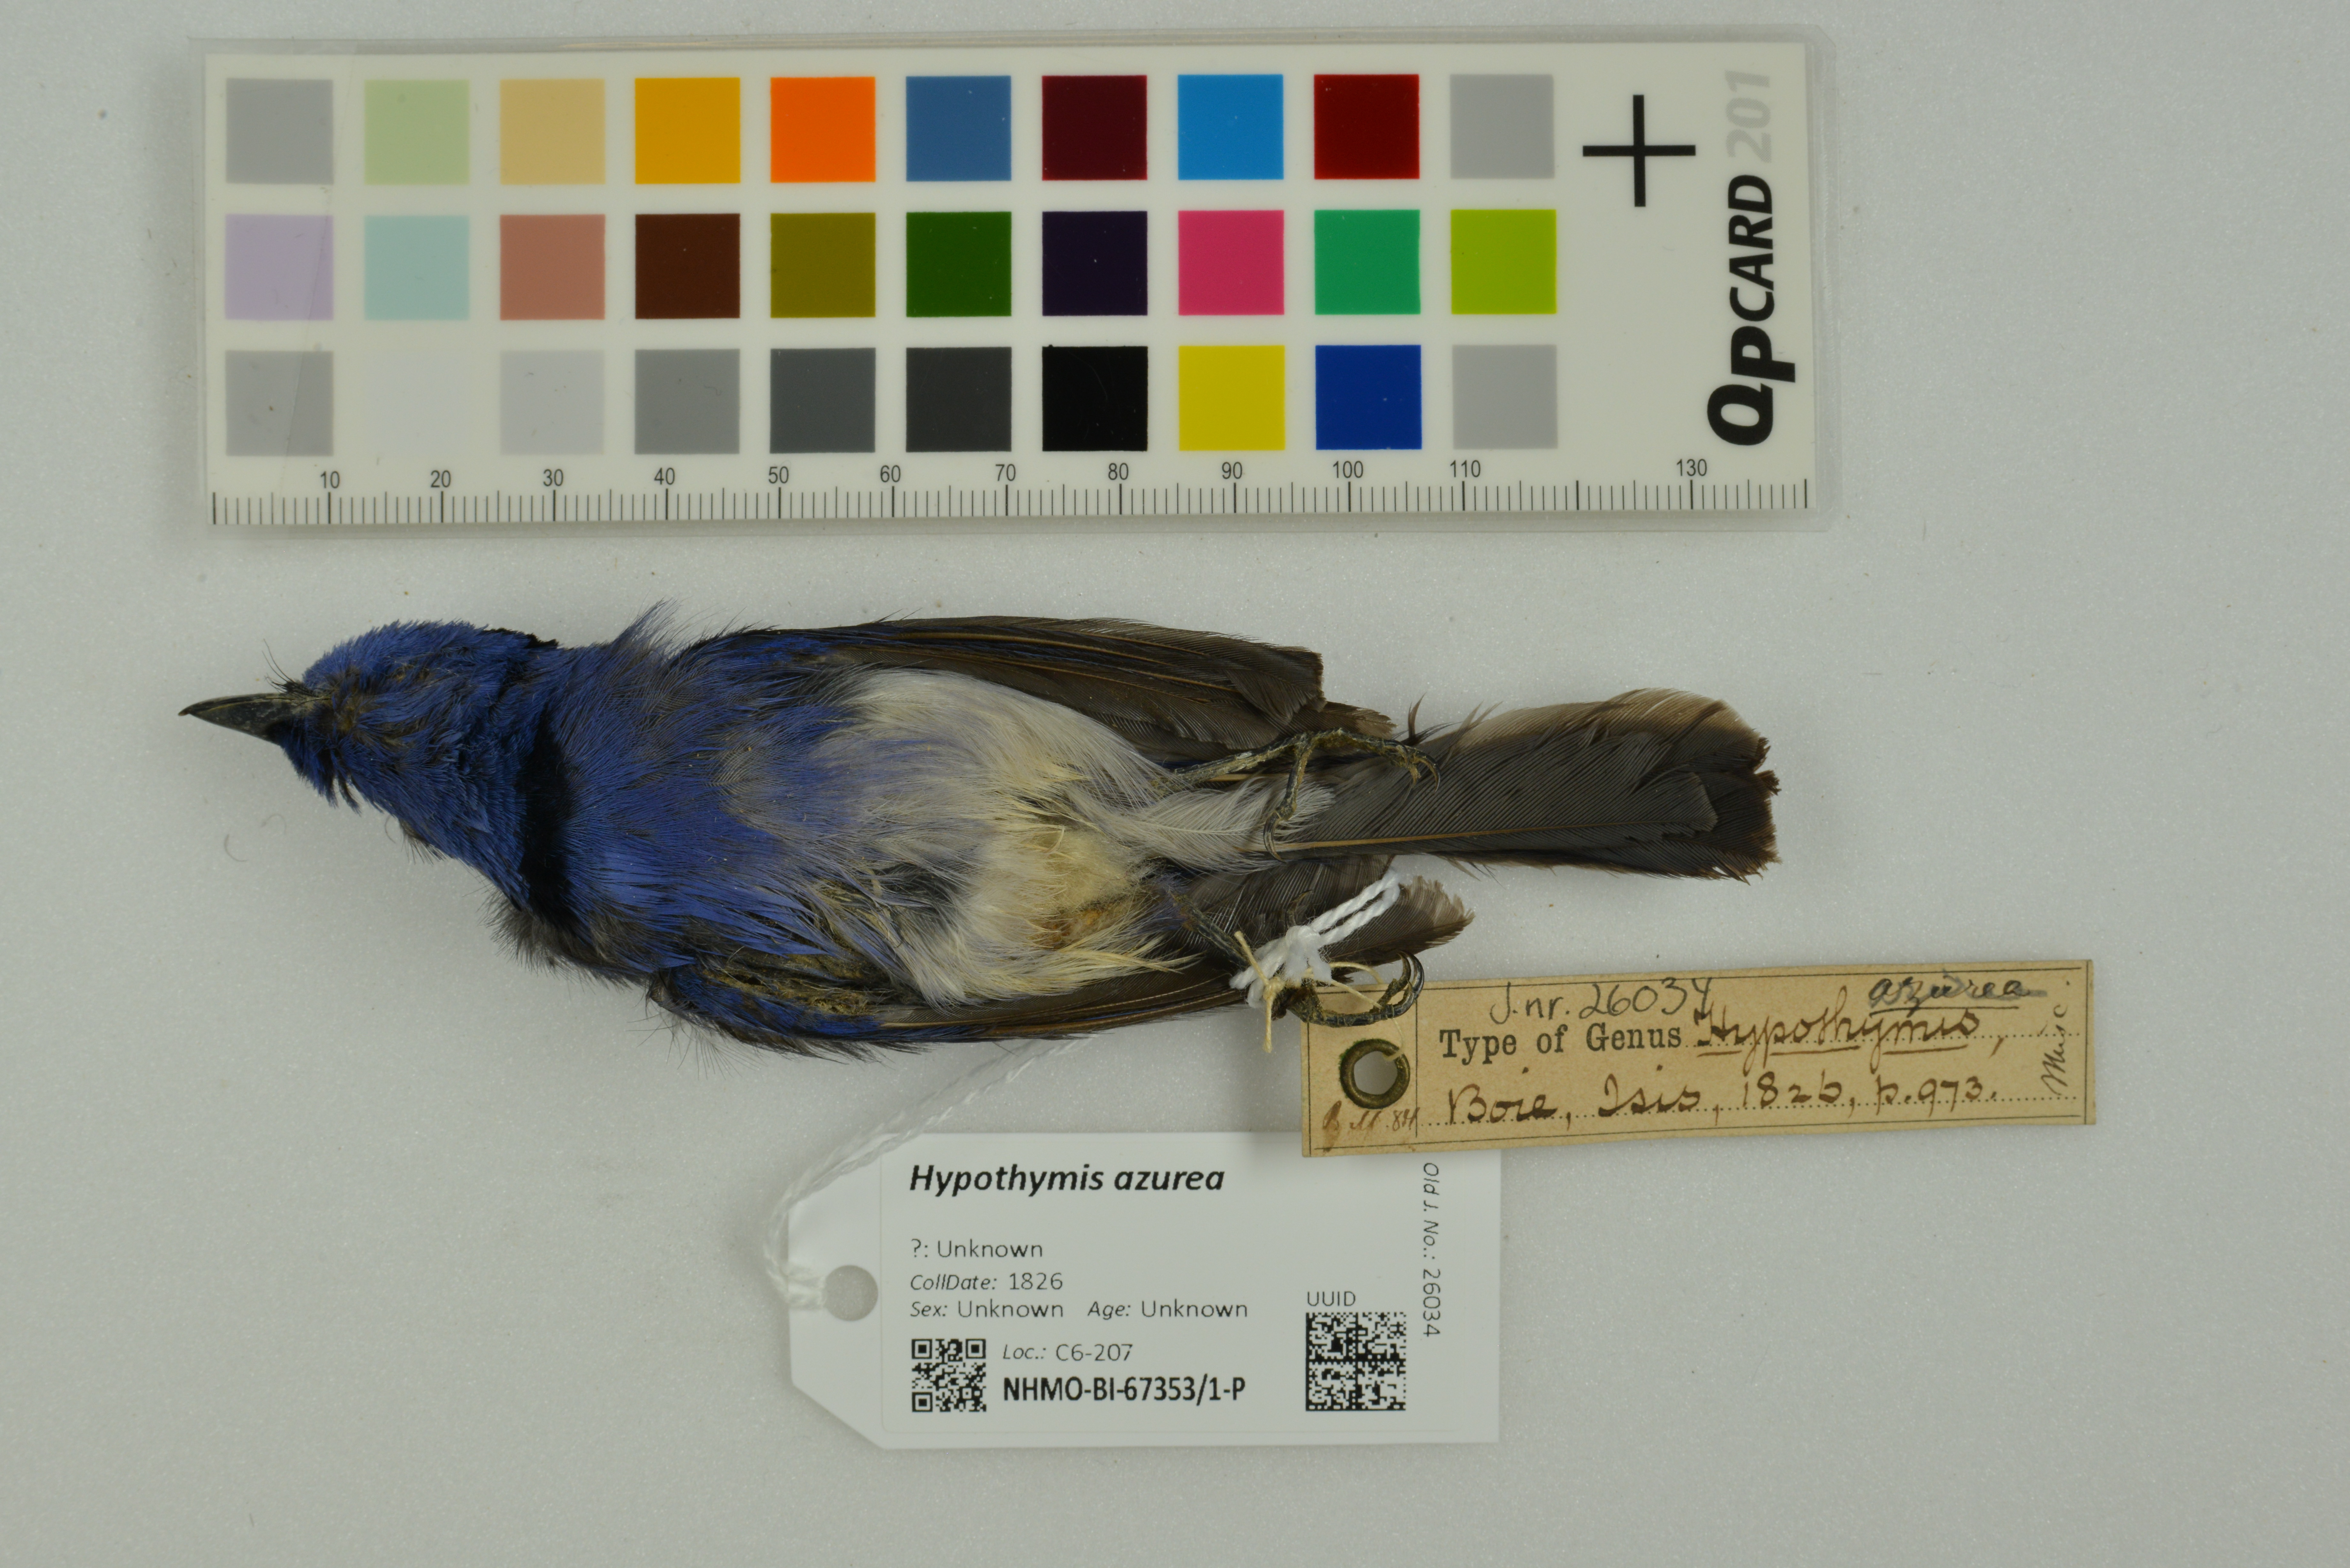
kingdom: Animalia
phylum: Chordata
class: Aves
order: Passeriformes
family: Monarchidae
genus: Hypothymis
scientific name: Hypothymis azurea
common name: Black-naped monarch
